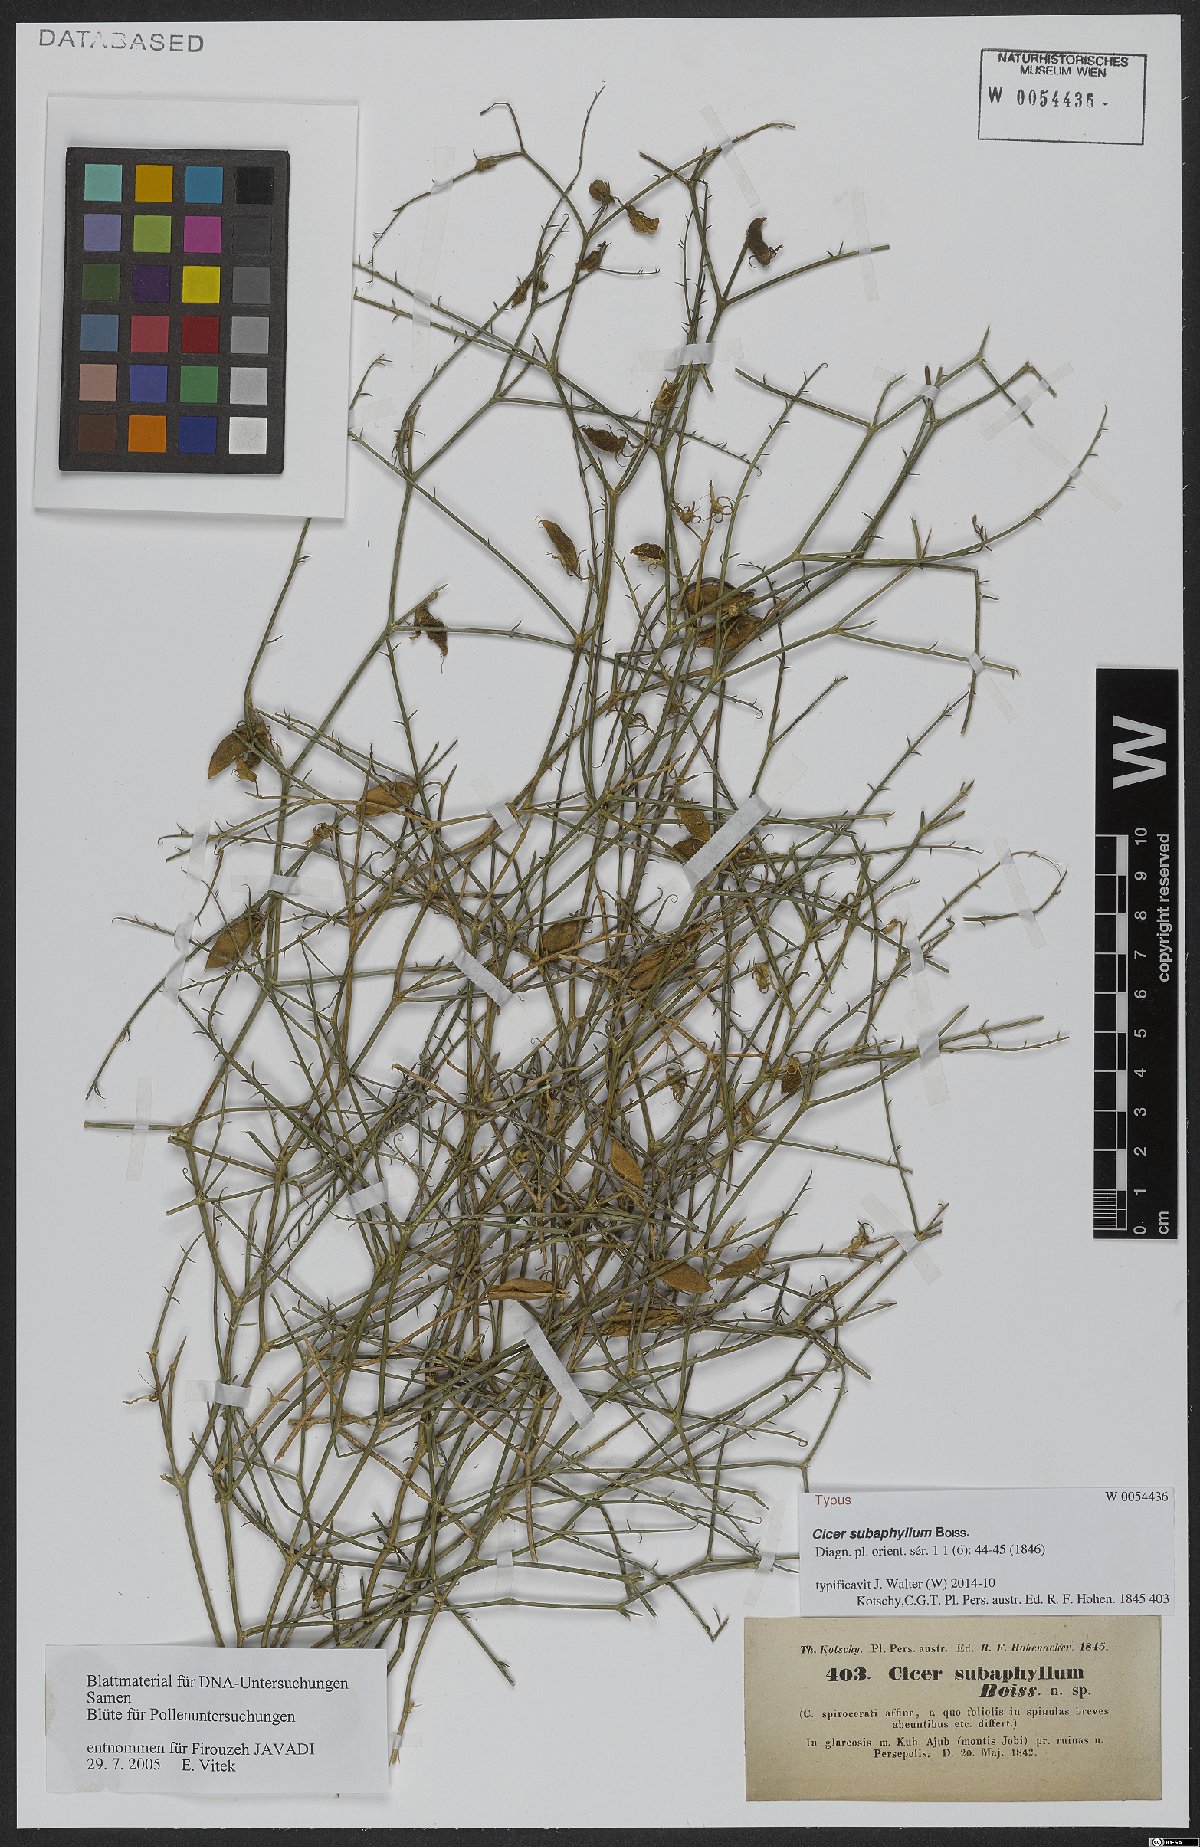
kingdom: Plantae
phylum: Tracheophyta
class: Magnoliopsida
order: Fabales
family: Fabaceae
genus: Cicer
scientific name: Cicer subaphyllum
